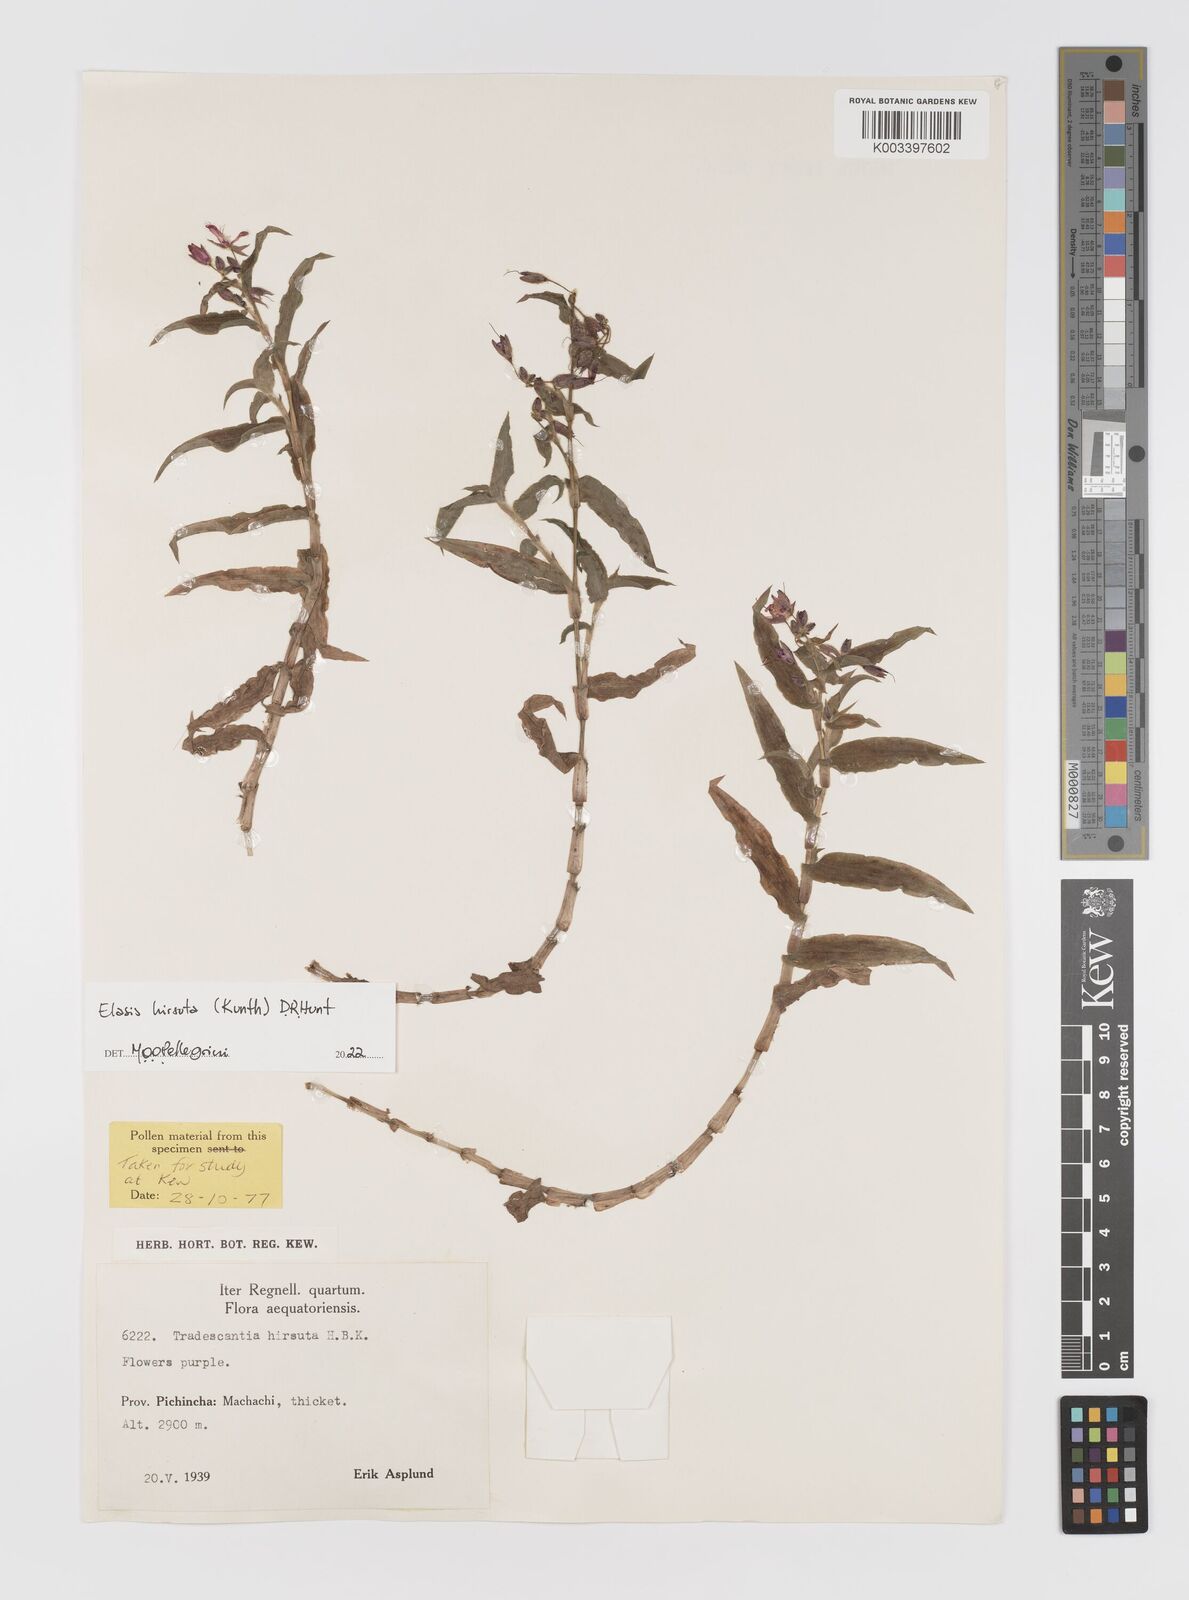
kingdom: Plantae
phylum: Tracheophyta
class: Liliopsida
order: Commelinales
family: Commelinaceae
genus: Elasis
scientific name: Elasis hirsuta
